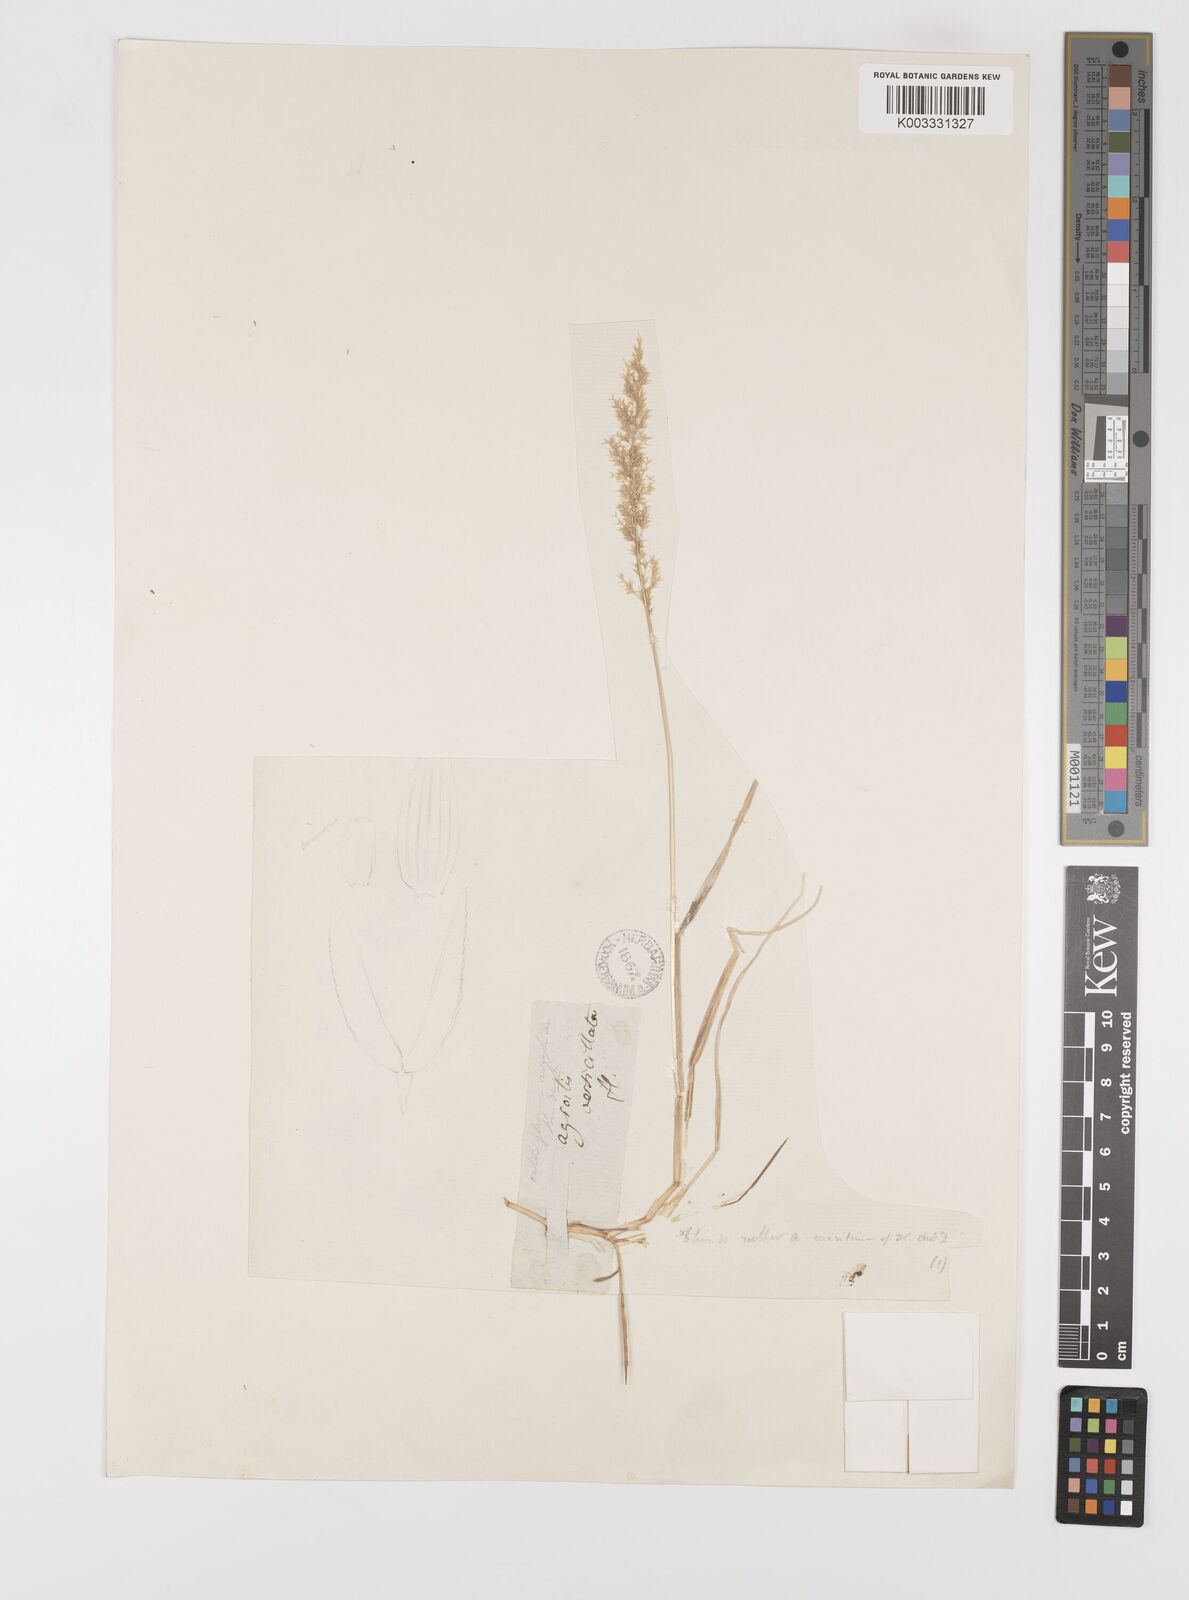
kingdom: Plantae
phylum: Tracheophyta
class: Liliopsida
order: Poales
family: Poaceae
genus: Polypogon
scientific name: Polypogon viridis
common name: Water bent
